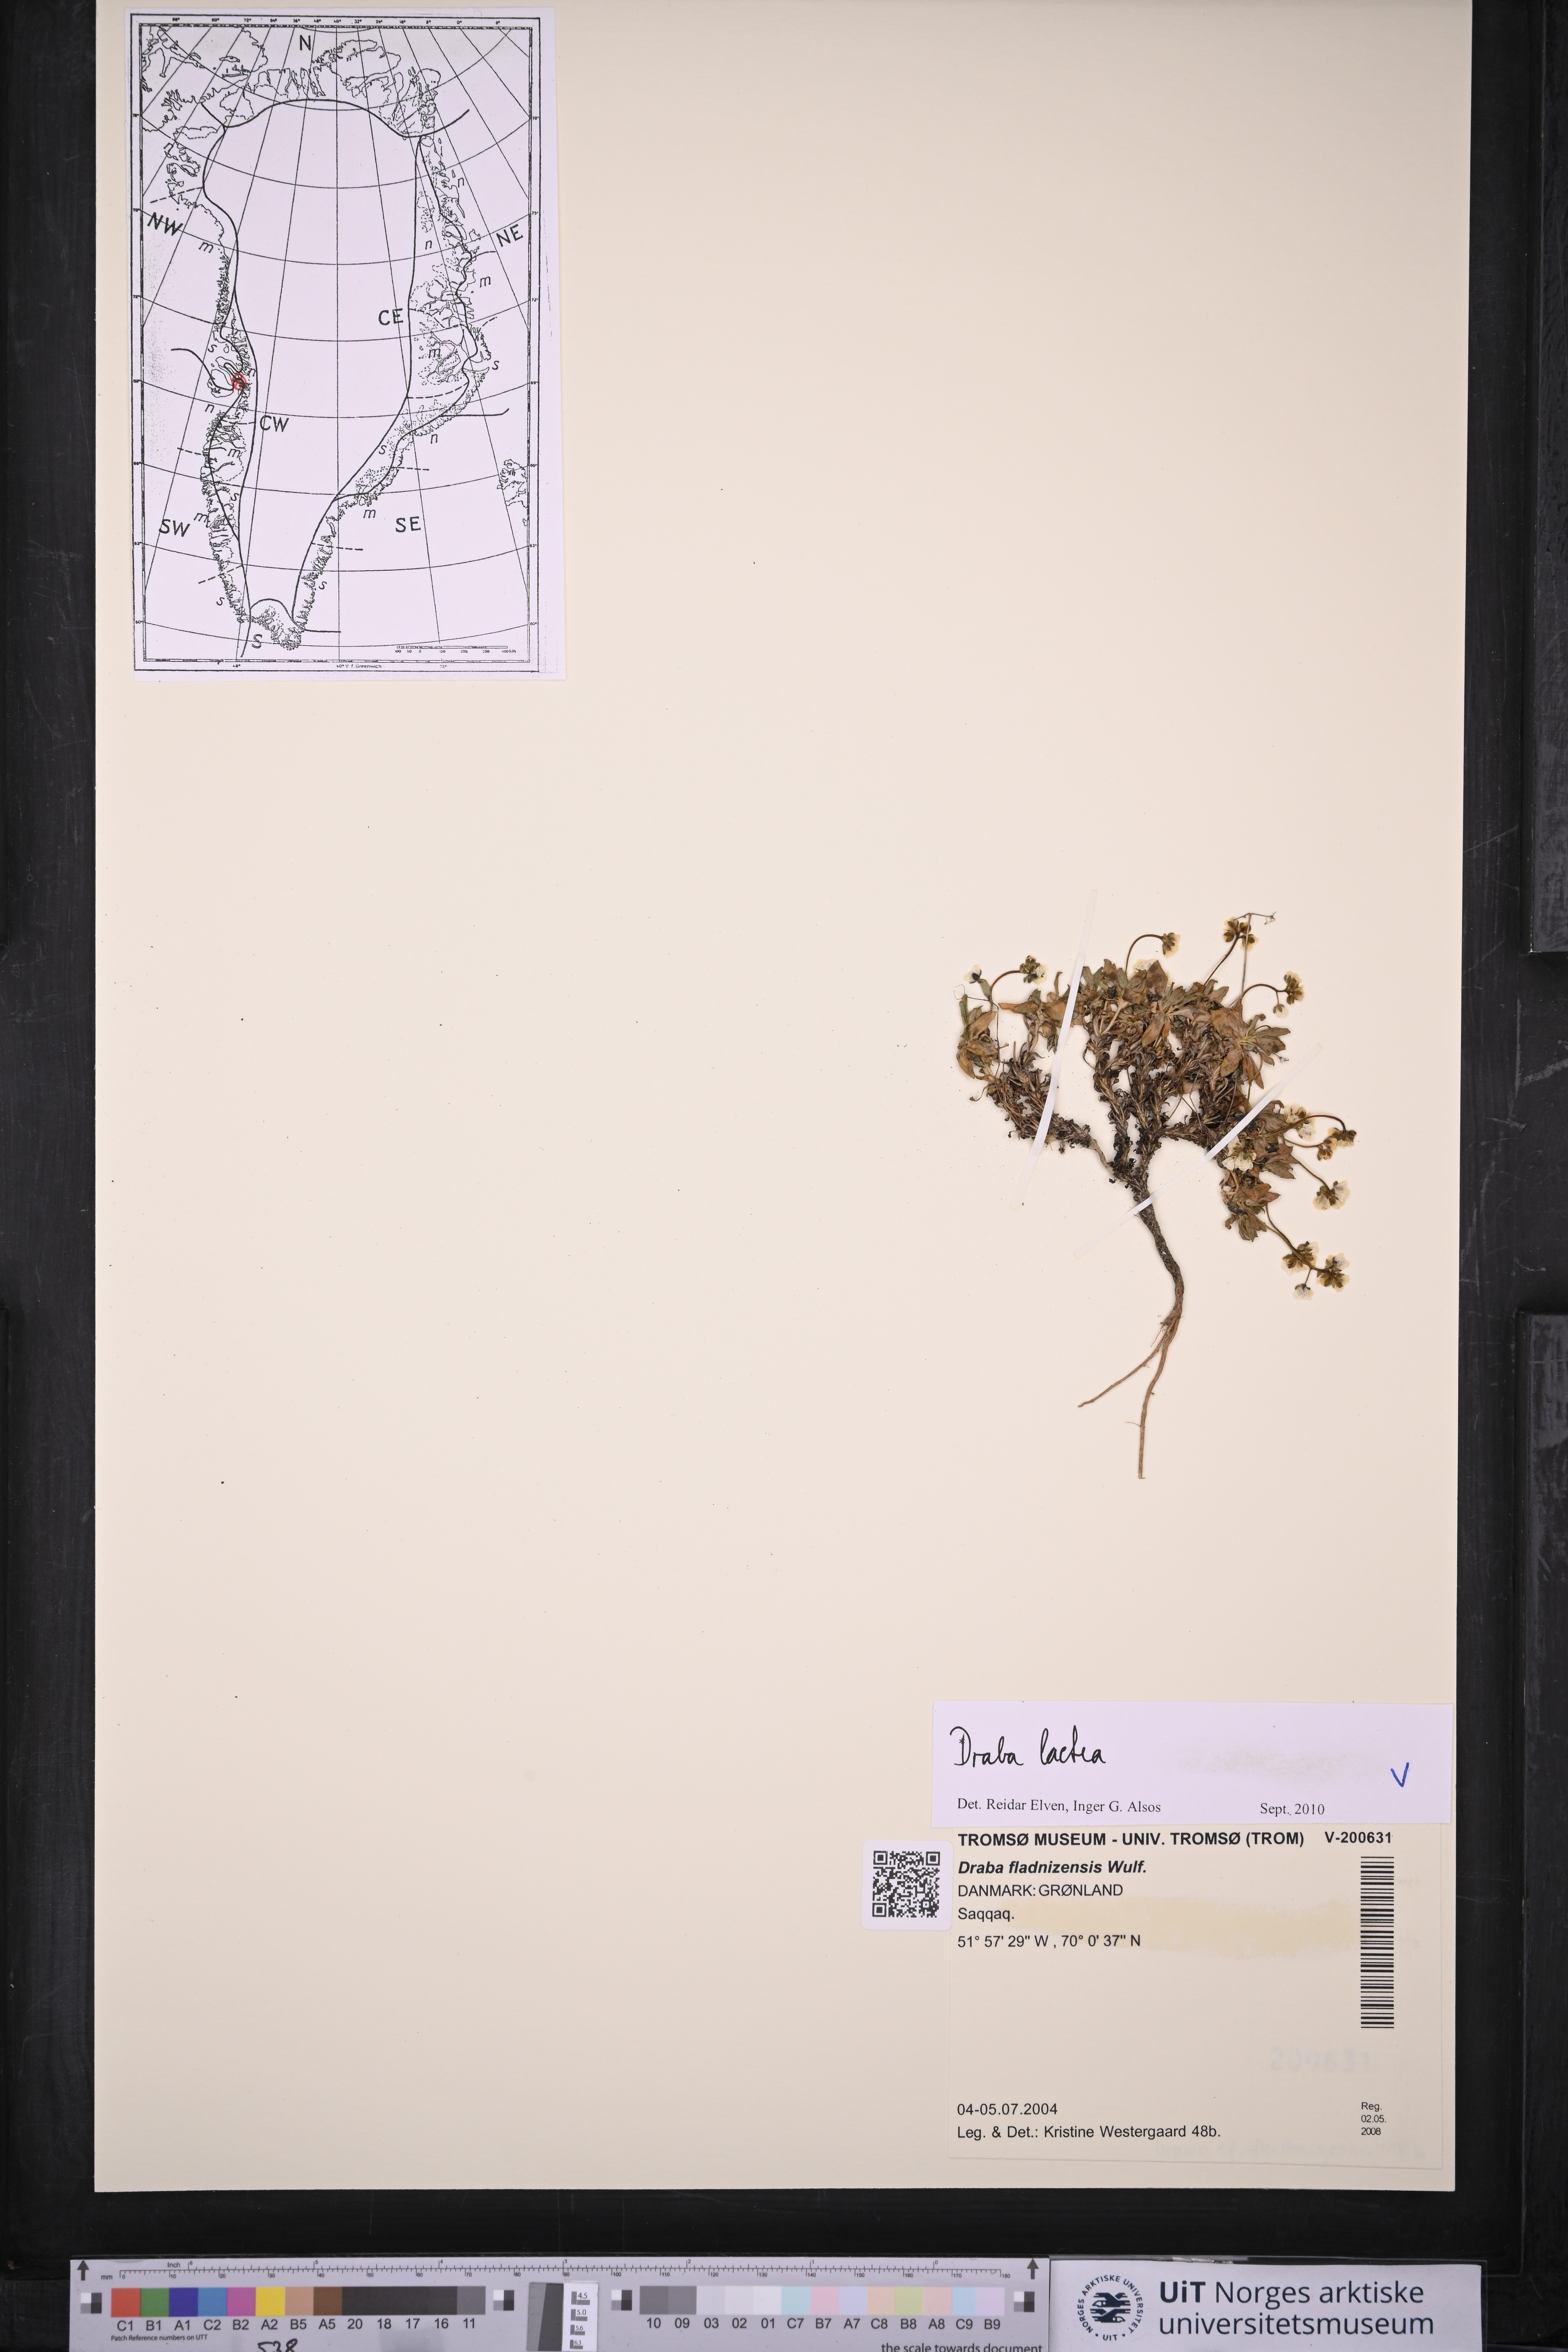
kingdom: Plantae
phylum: Tracheophyta
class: Magnoliopsida
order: Brassicales
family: Brassicaceae
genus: Draba
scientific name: Draba lactea
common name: Milky draba
